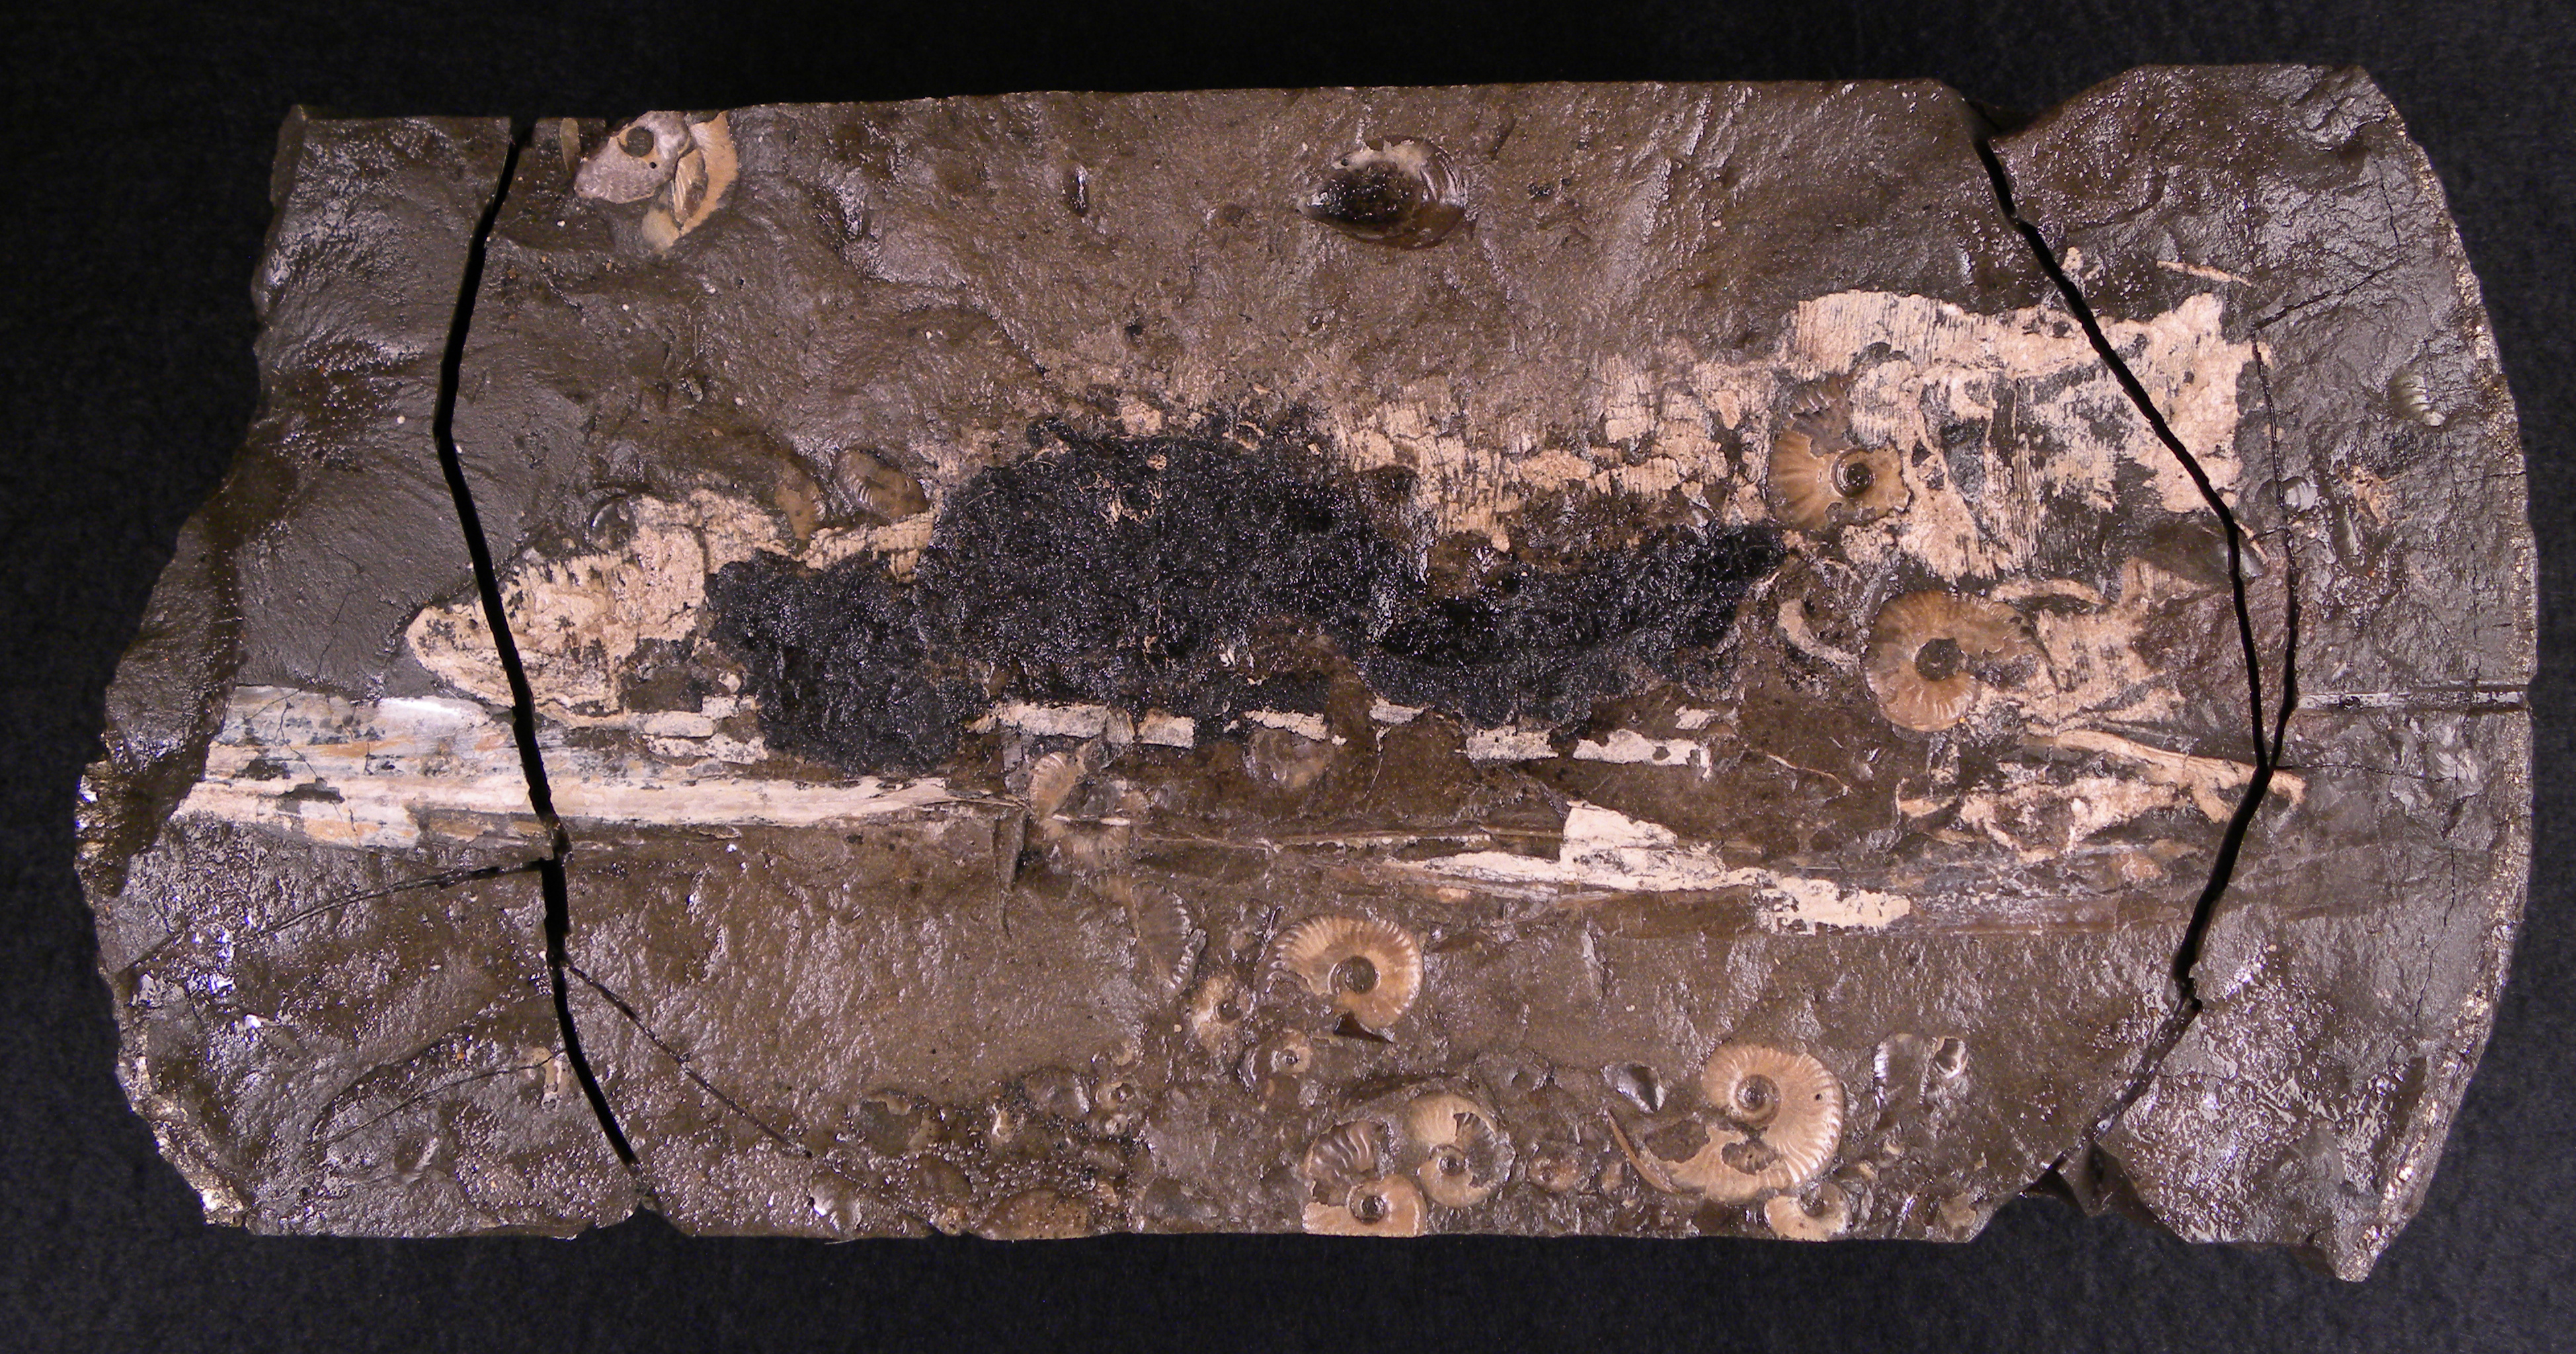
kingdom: Animalia
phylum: Mollusca
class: Cephalopoda
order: Vampyromorpha
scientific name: Vampyromorpha
